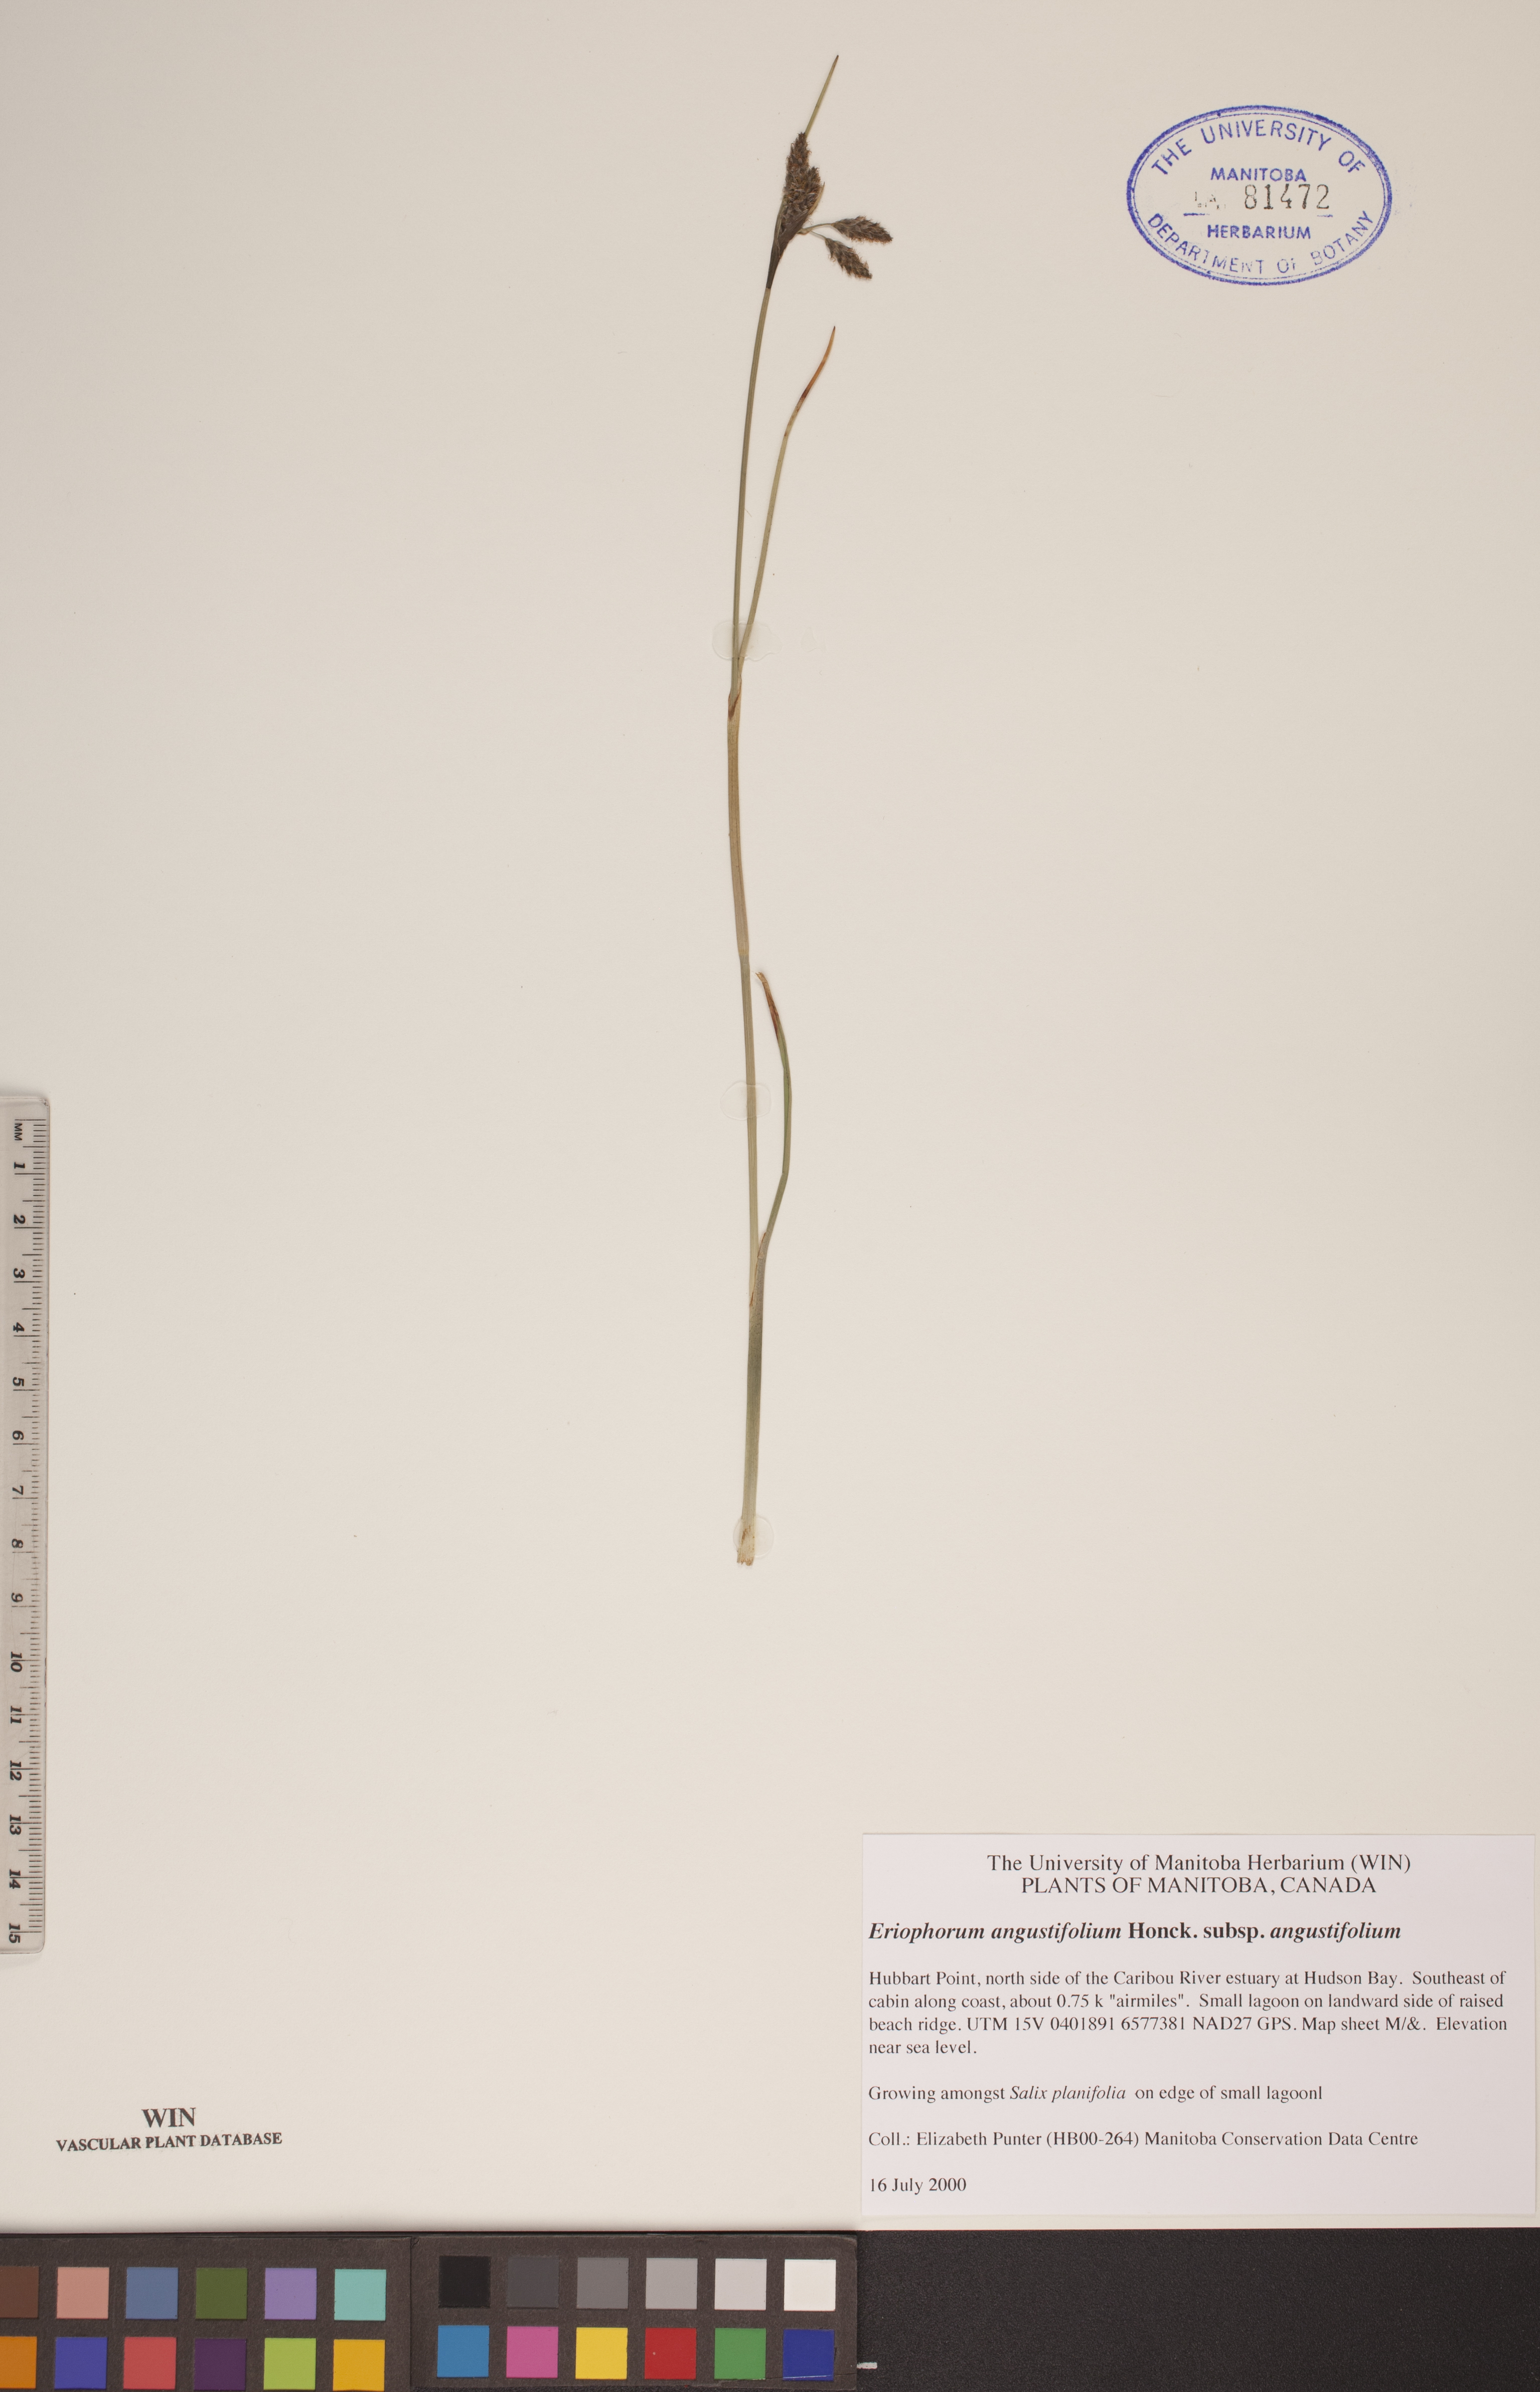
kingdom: Plantae
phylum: Tracheophyta
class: Liliopsida
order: Poales
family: Cyperaceae
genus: Eriophorum
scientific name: Eriophorum angustifolium
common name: Common cottongrass
